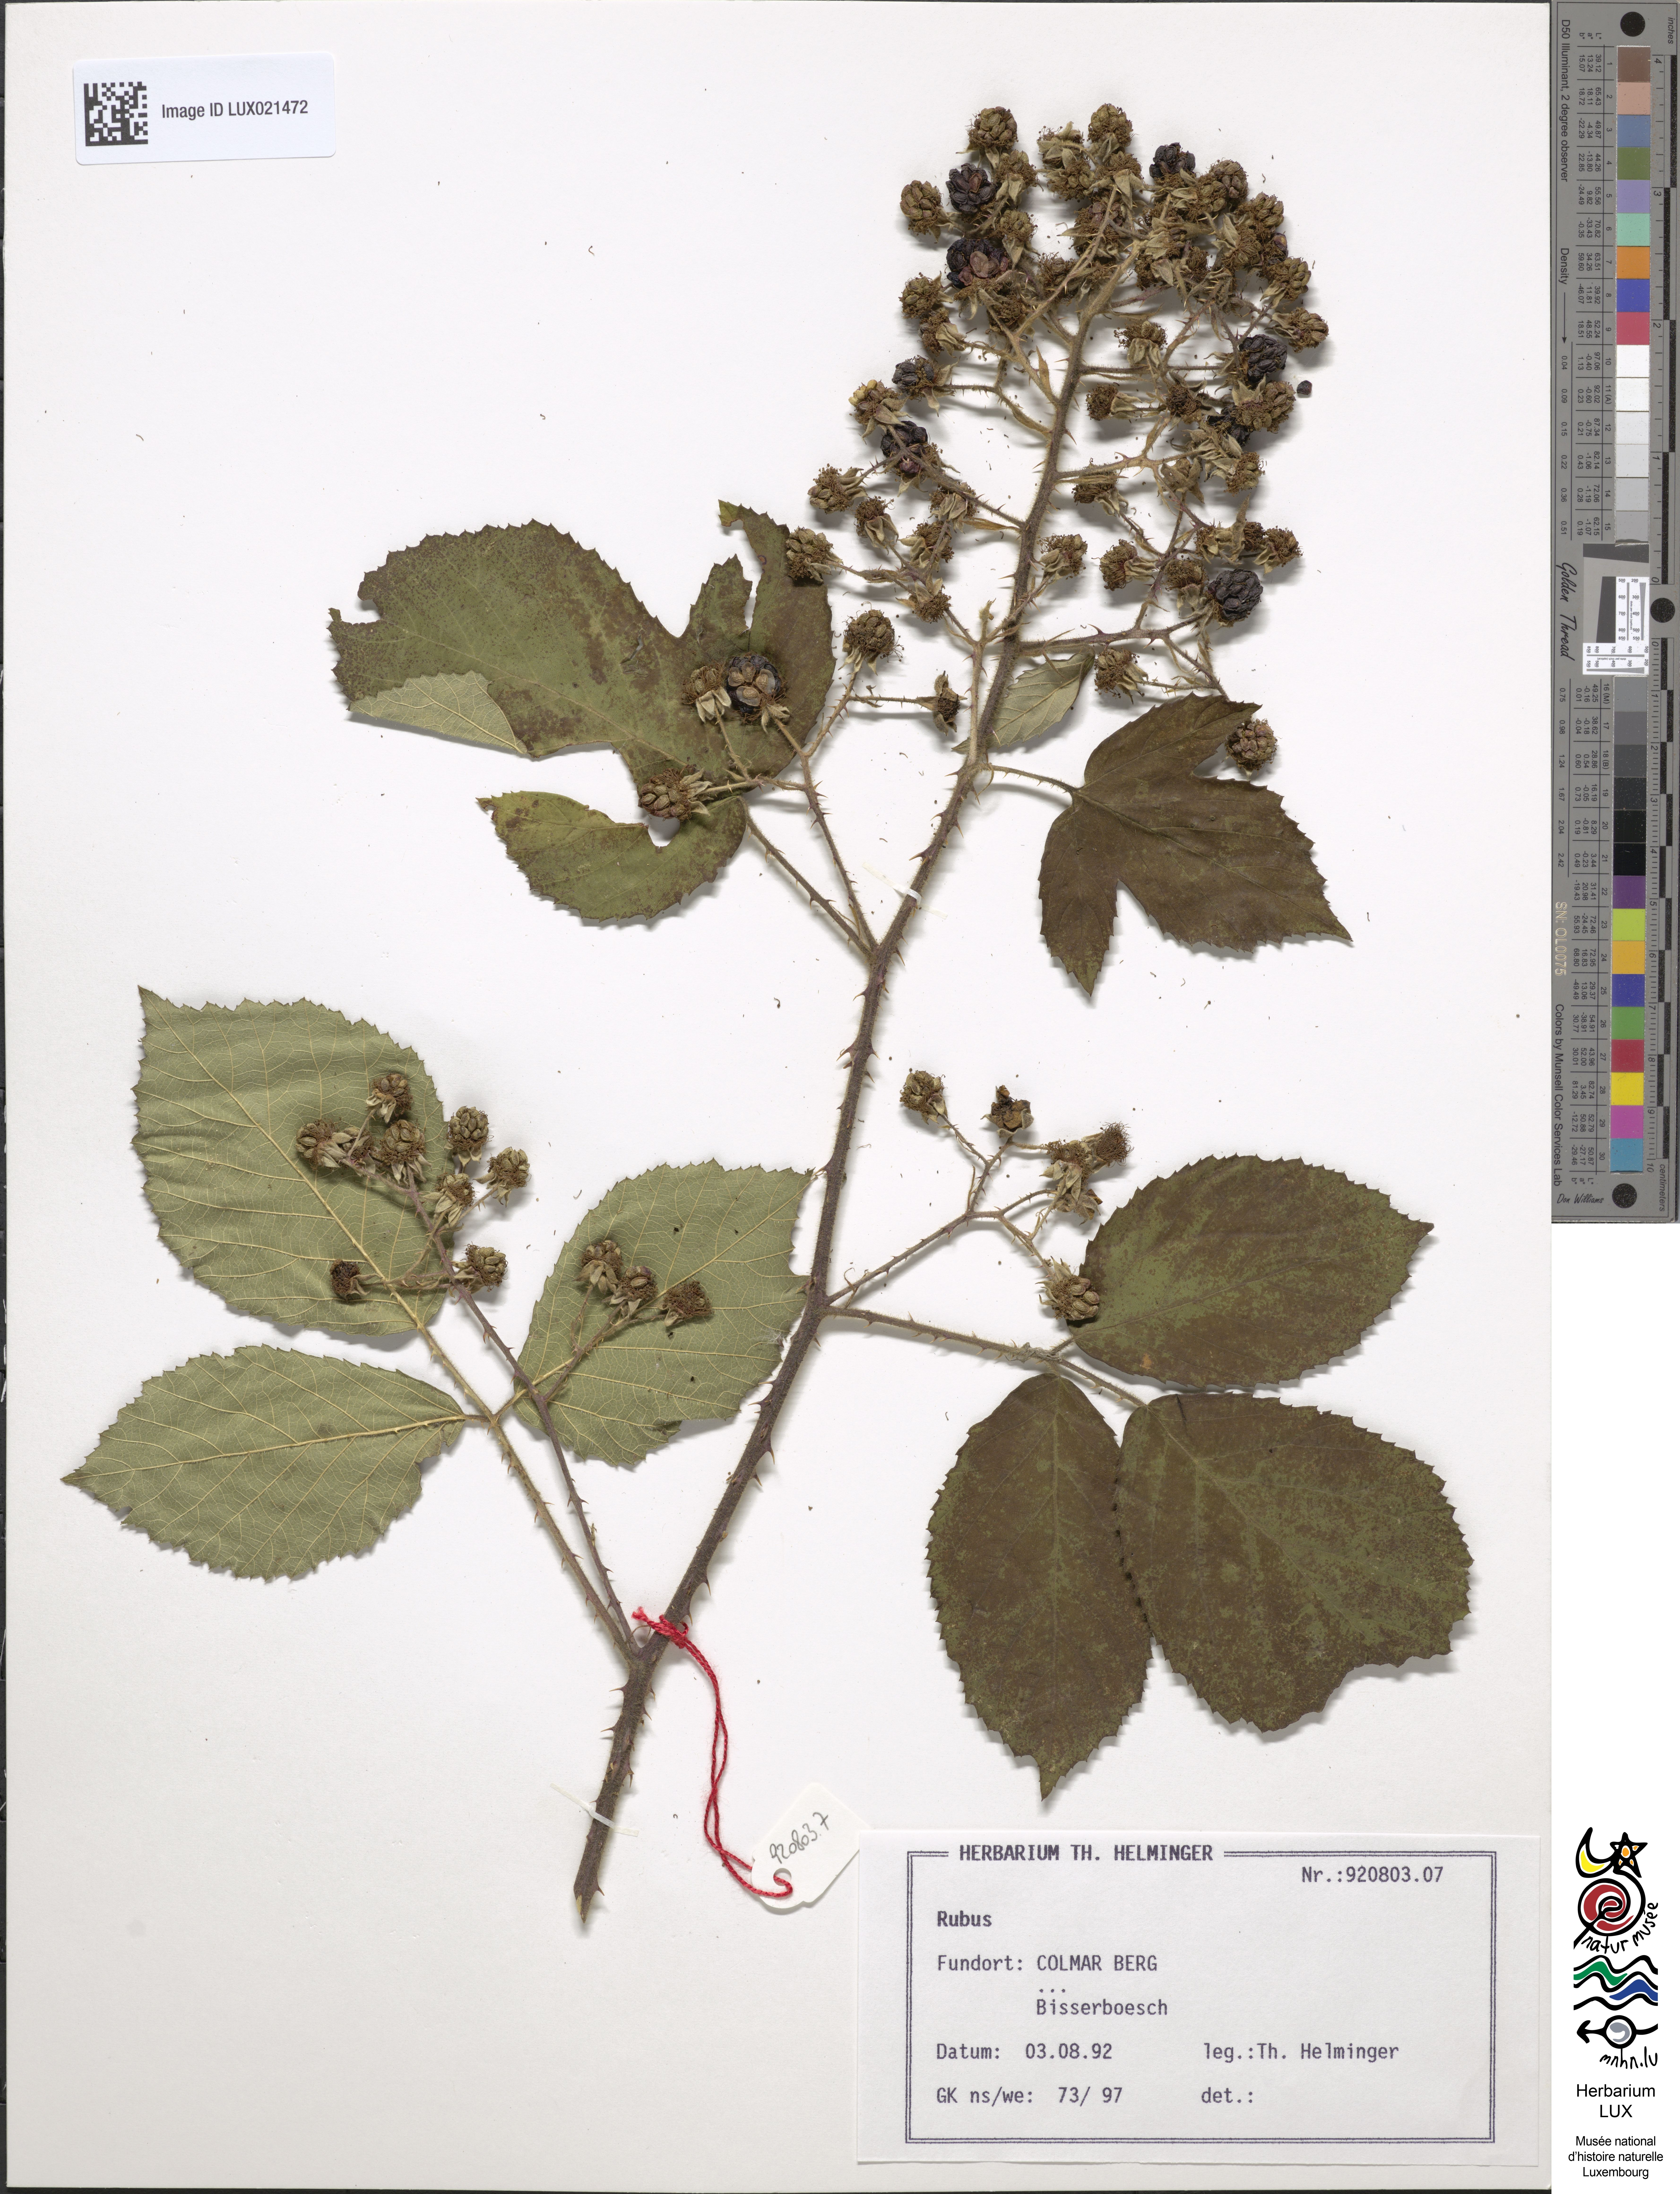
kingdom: Plantae
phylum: Tracheophyta
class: Magnoliopsida
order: Rosales
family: Rosaceae
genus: Rubus
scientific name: Rubus
